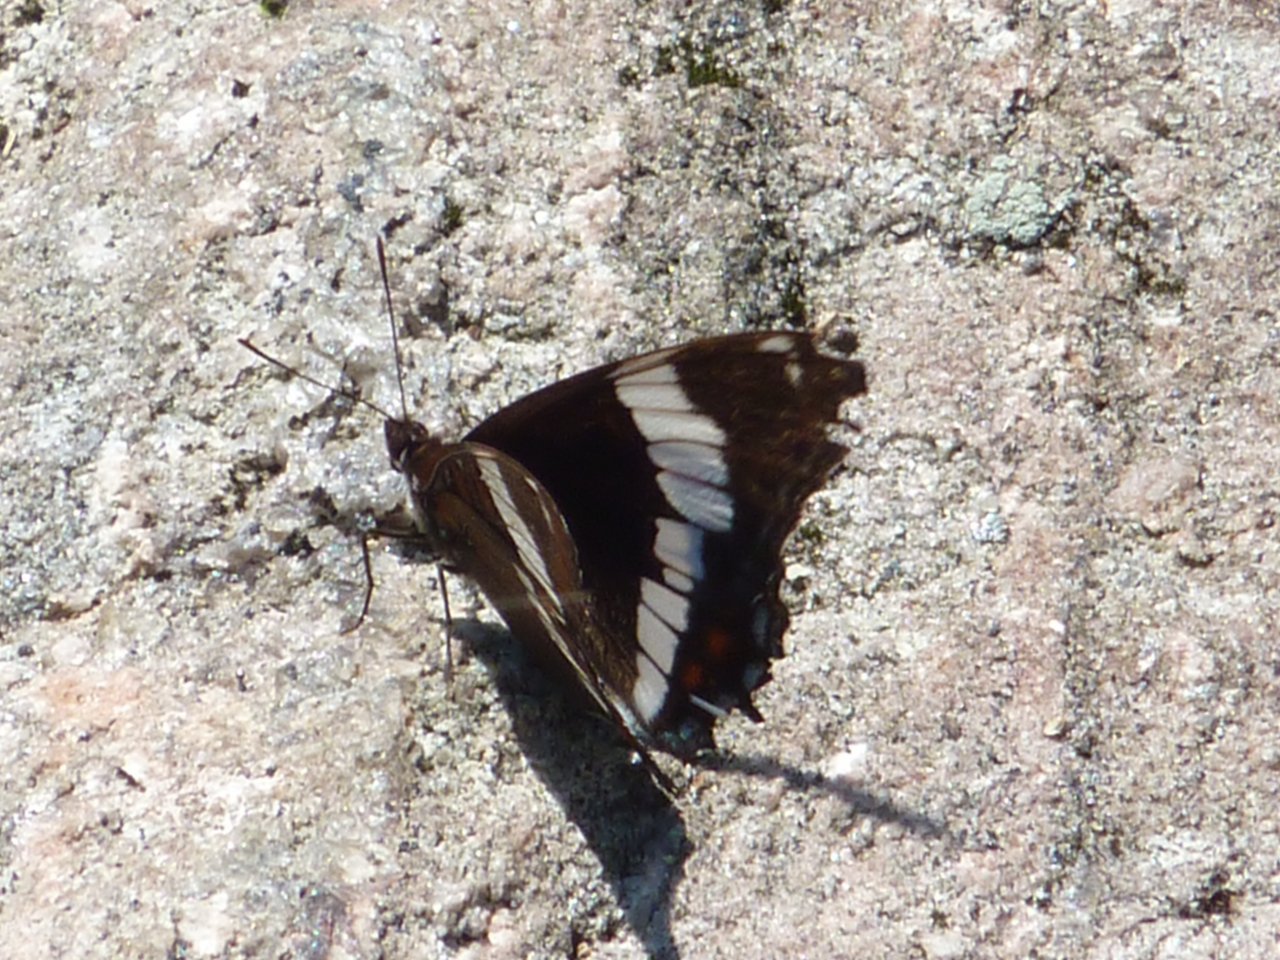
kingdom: Animalia
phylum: Arthropoda
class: Insecta
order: Lepidoptera
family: Nymphalidae
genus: Limenitis
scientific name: Limenitis arthemis
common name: Red-spotted Admiral
